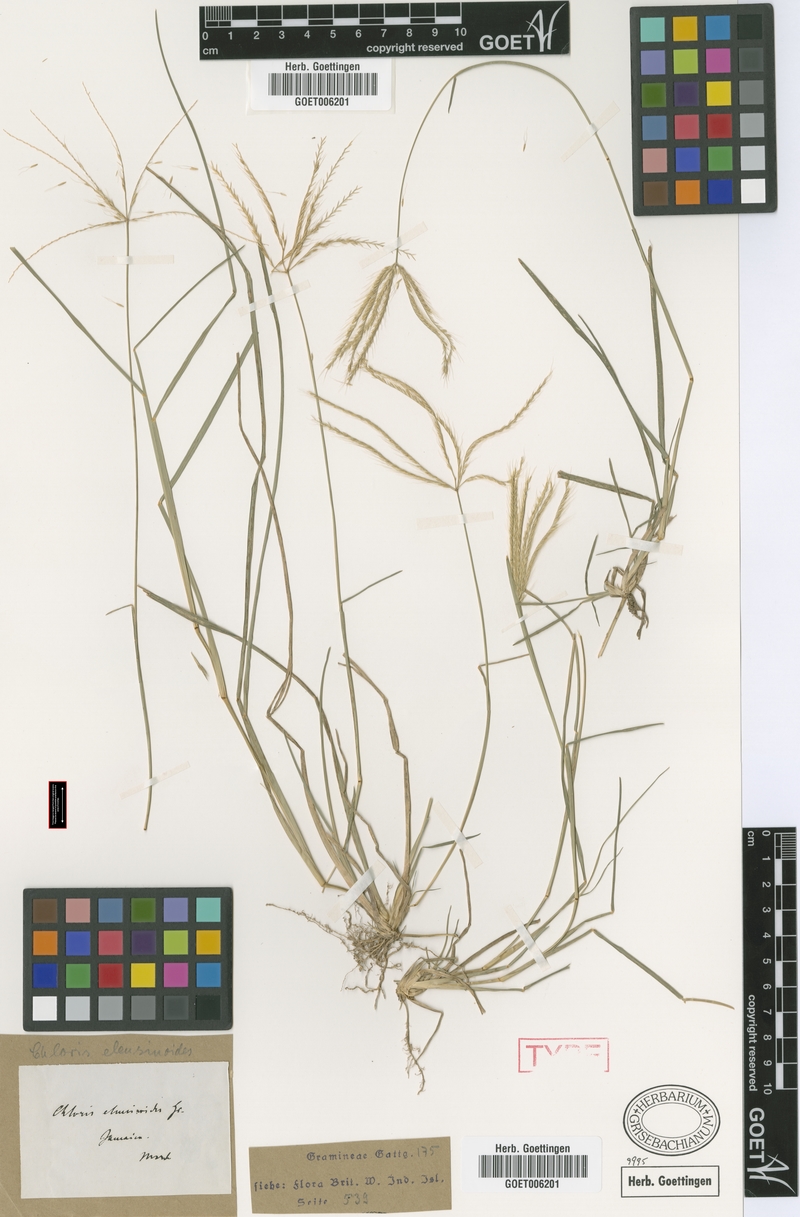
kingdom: Plantae
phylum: Tracheophyta
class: Liliopsida
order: Poales
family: Poaceae
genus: Chloris
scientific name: Chloris sagraeana
